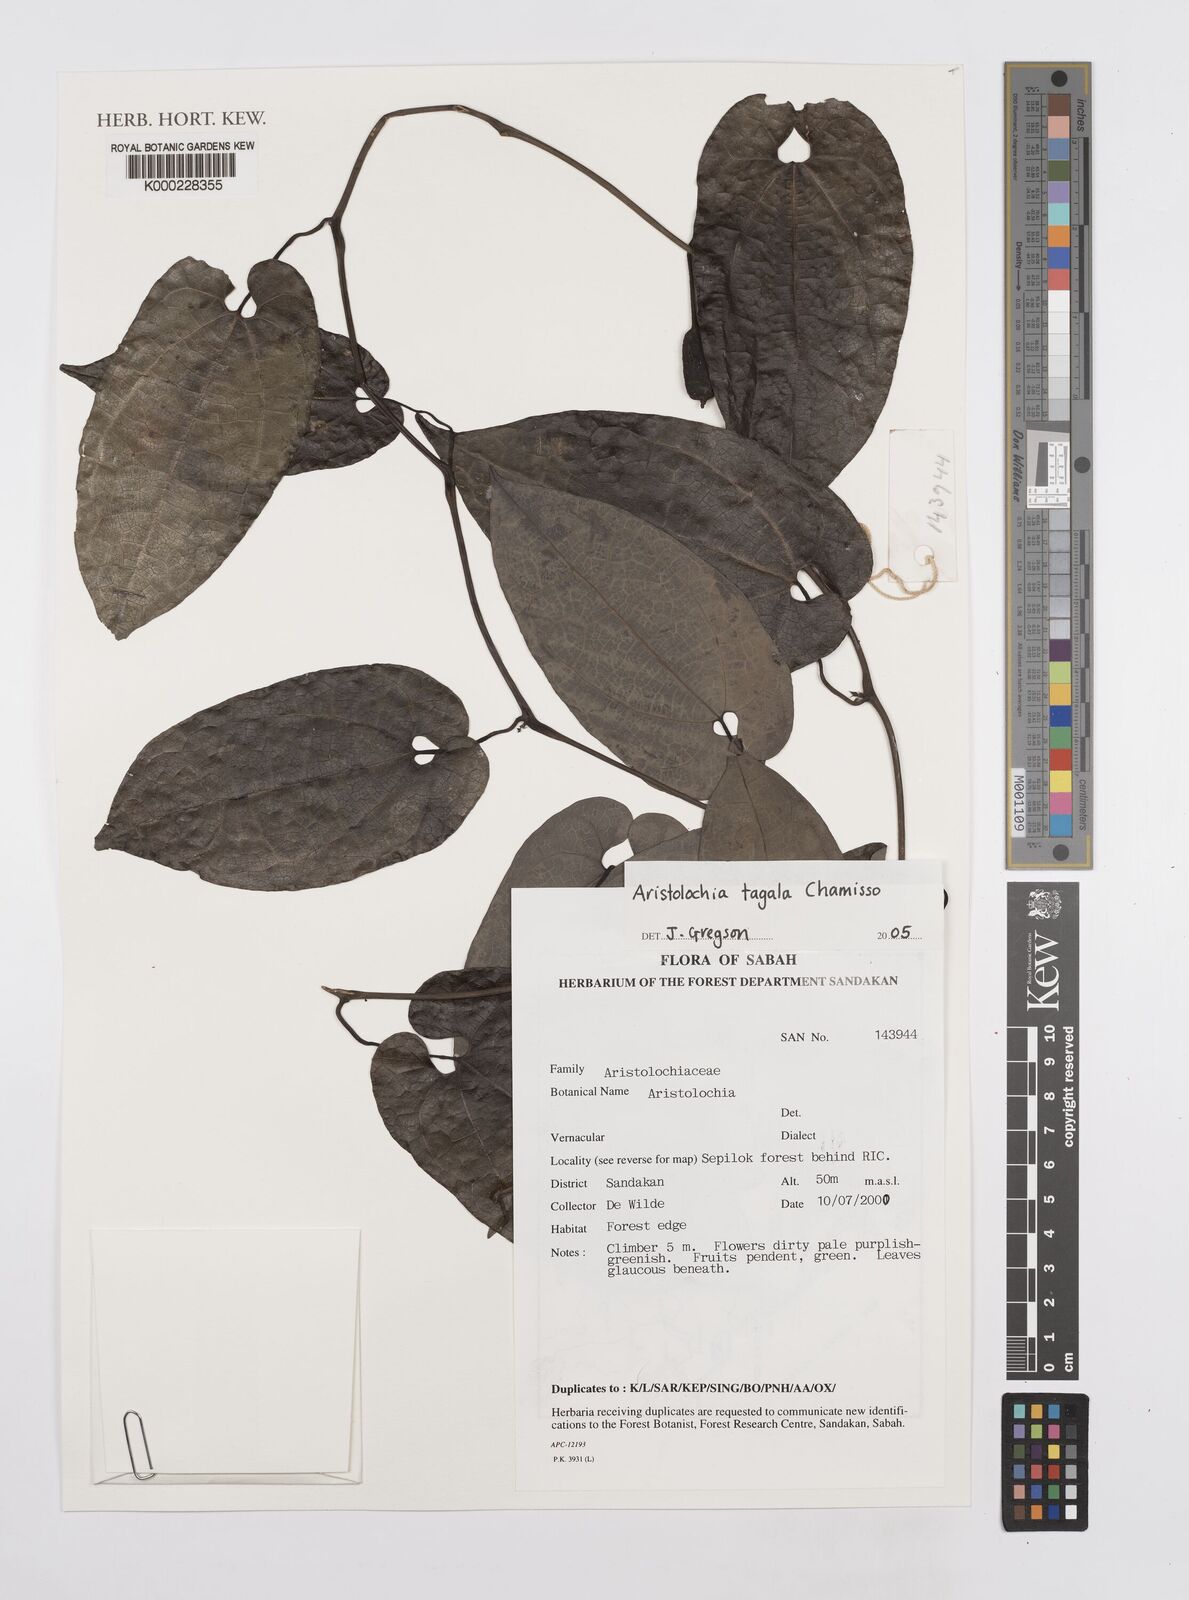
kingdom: Plantae
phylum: Tracheophyta
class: Magnoliopsida
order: Piperales
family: Aristolochiaceae
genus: Aristolochia
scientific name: Aristolochia acuminata
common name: Indian birthwort
